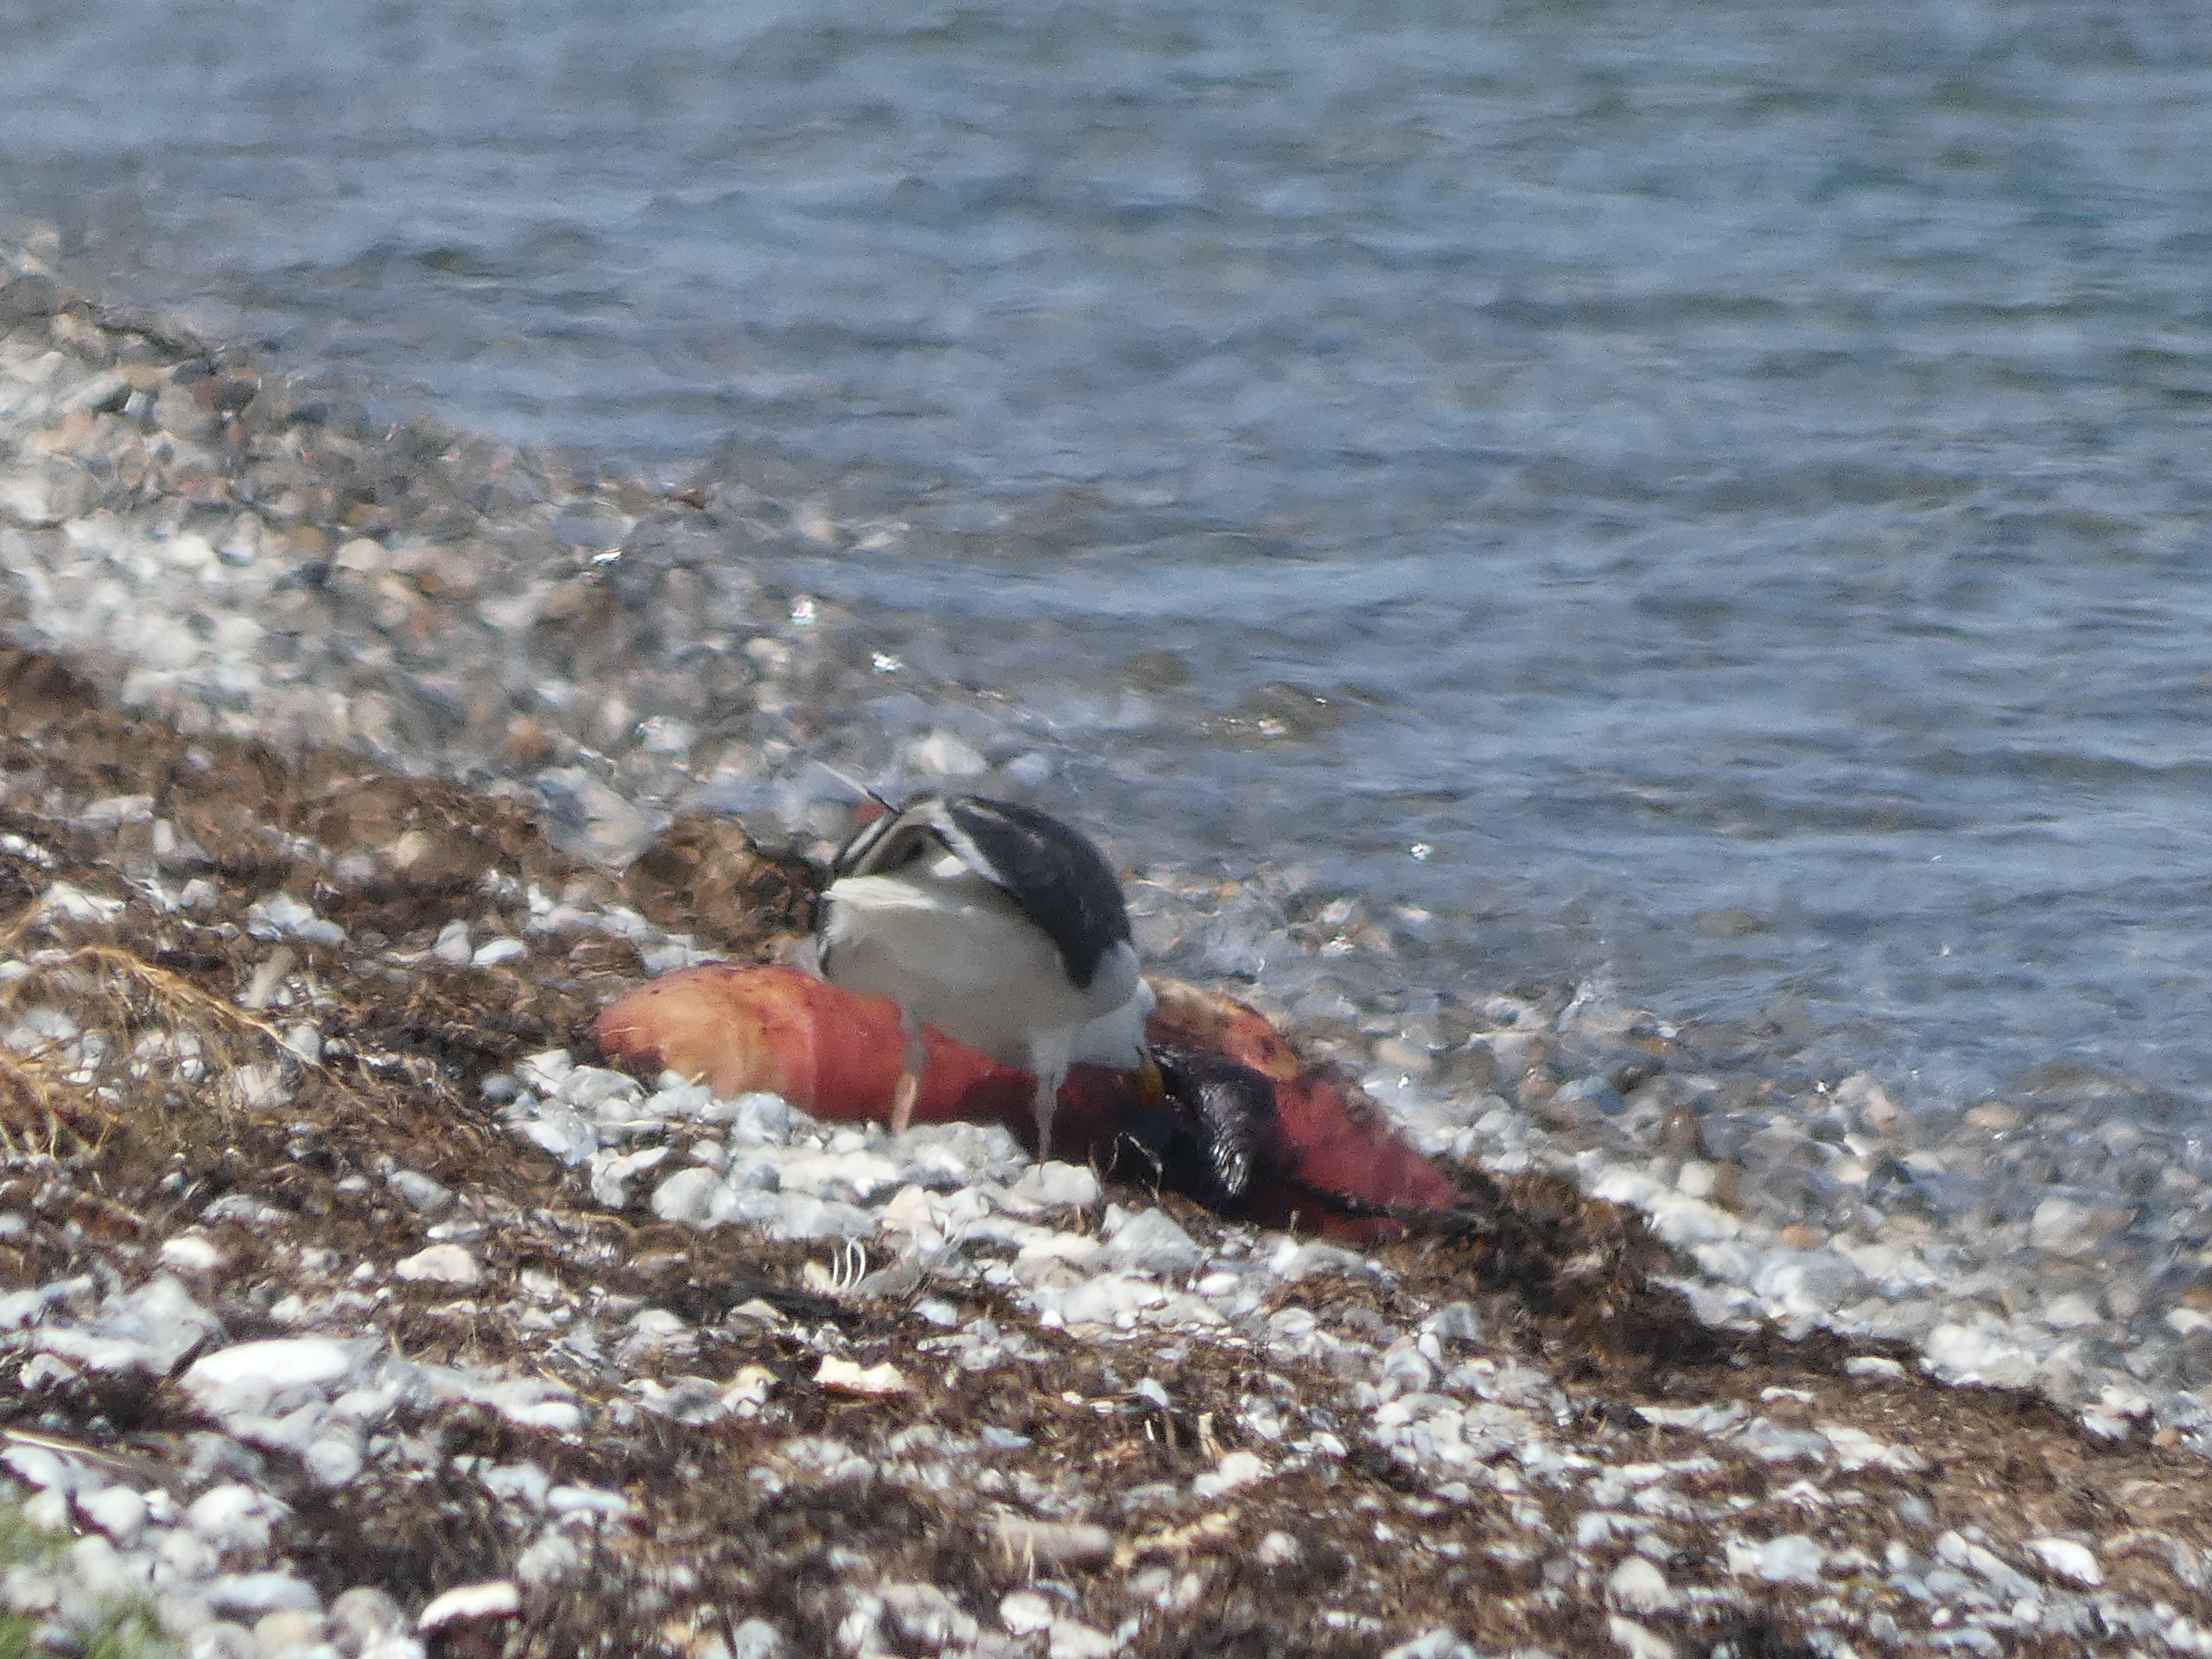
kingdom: Animalia
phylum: Chordata
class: Aves
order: Charadriiformes
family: Laridae
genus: Larus
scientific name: Larus marinus
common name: Svartbag
